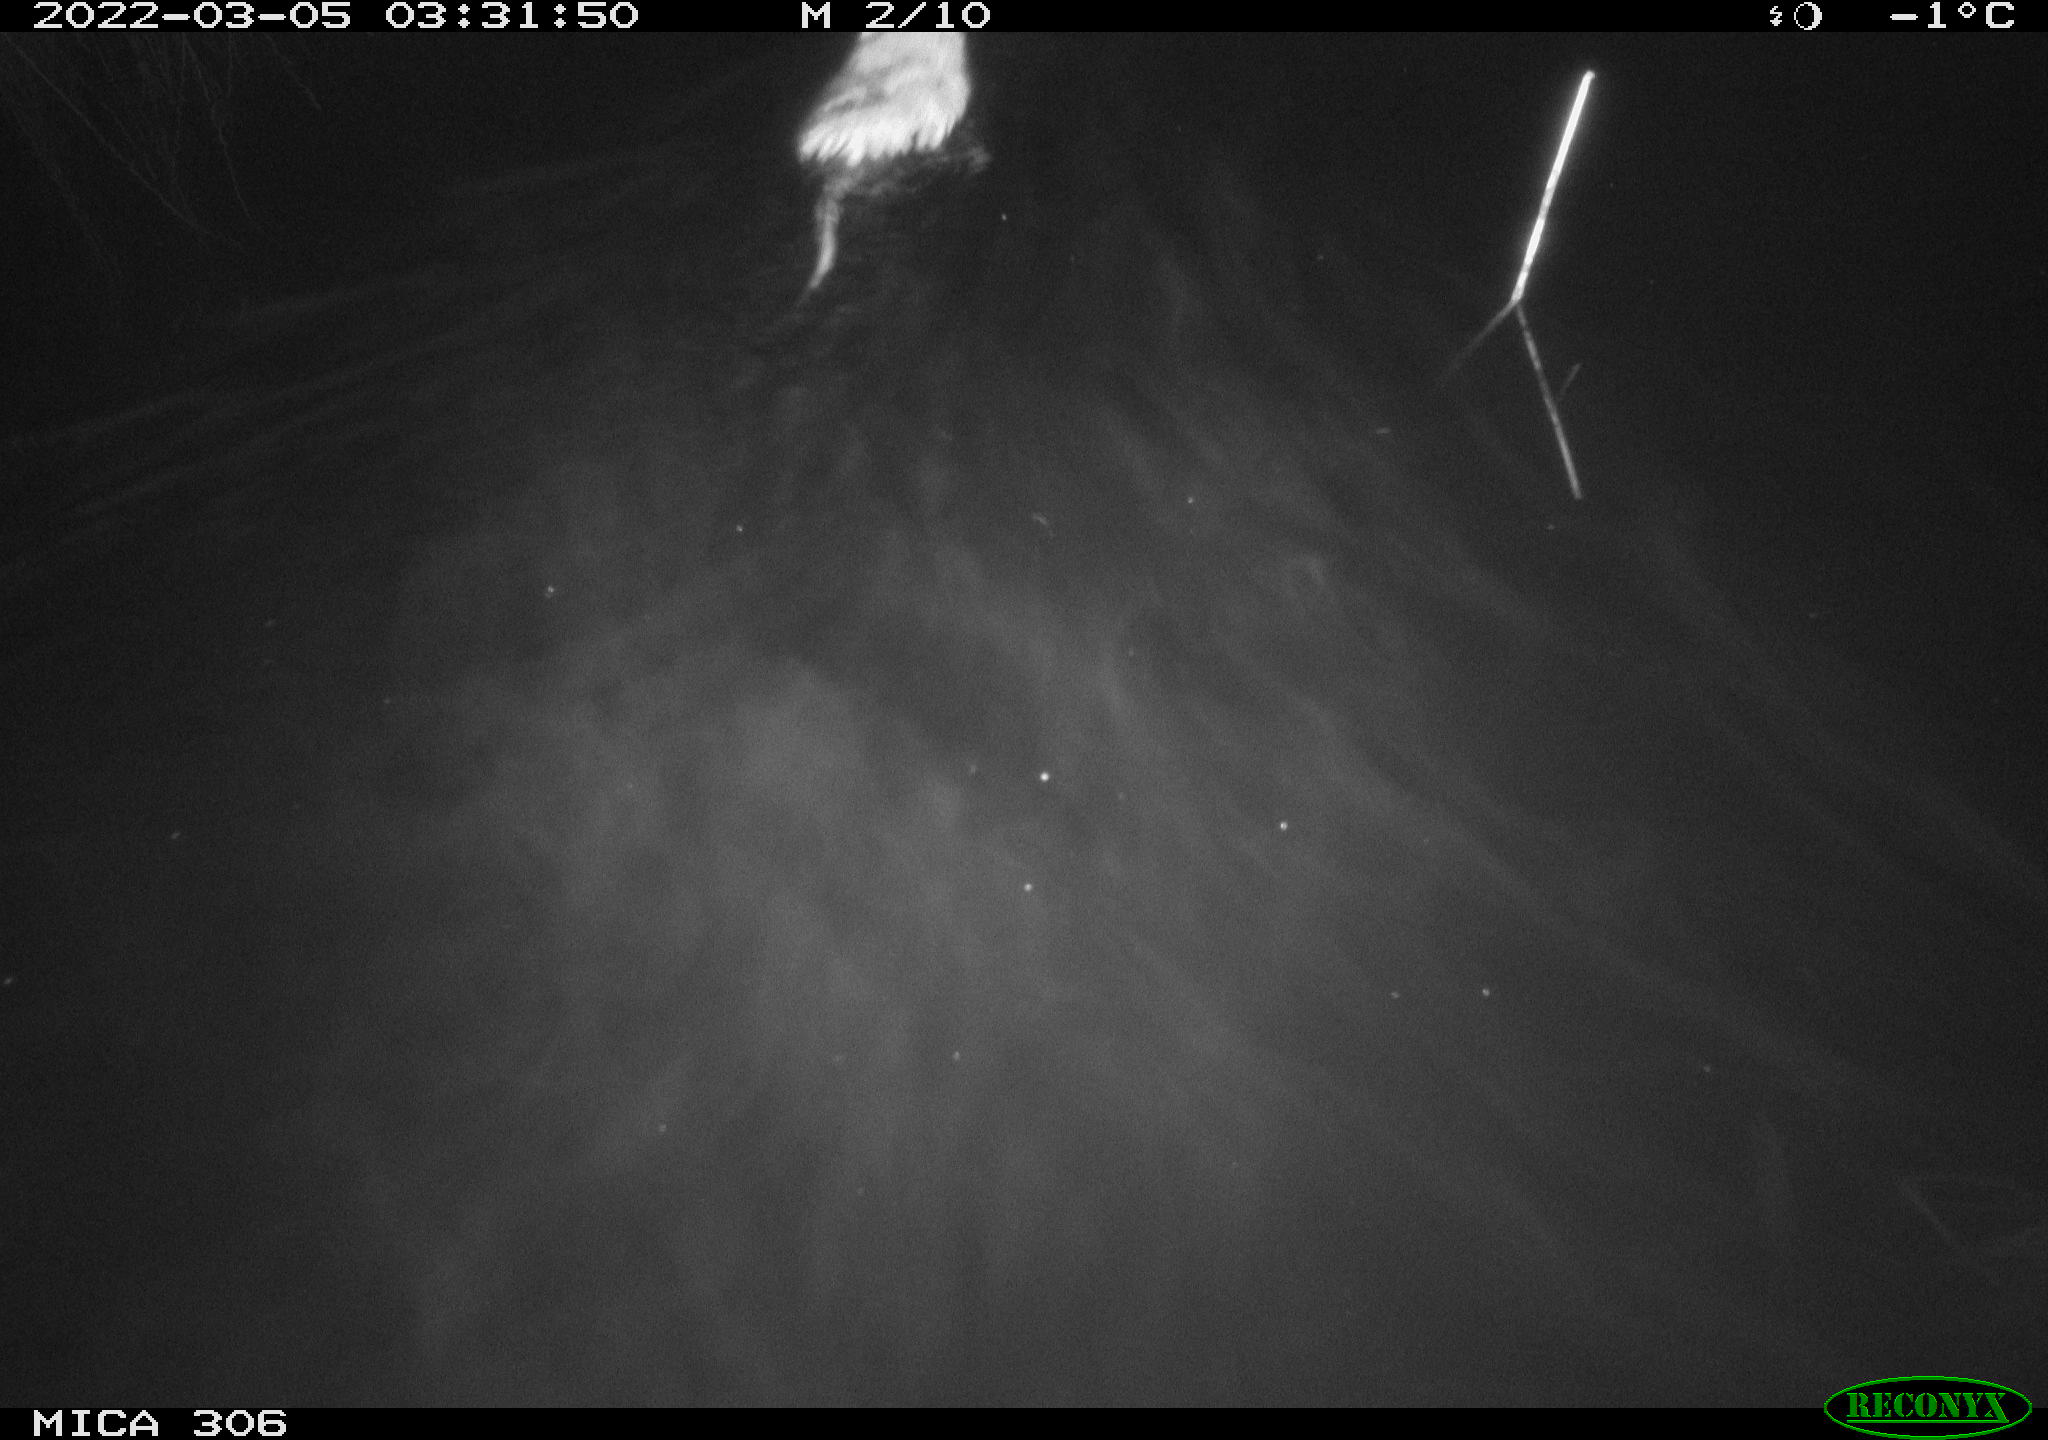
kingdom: Animalia
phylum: Chordata
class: Mammalia
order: Rodentia
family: Cricetidae
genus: Ondatra
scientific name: Ondatra zibethicus
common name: Muskrat
